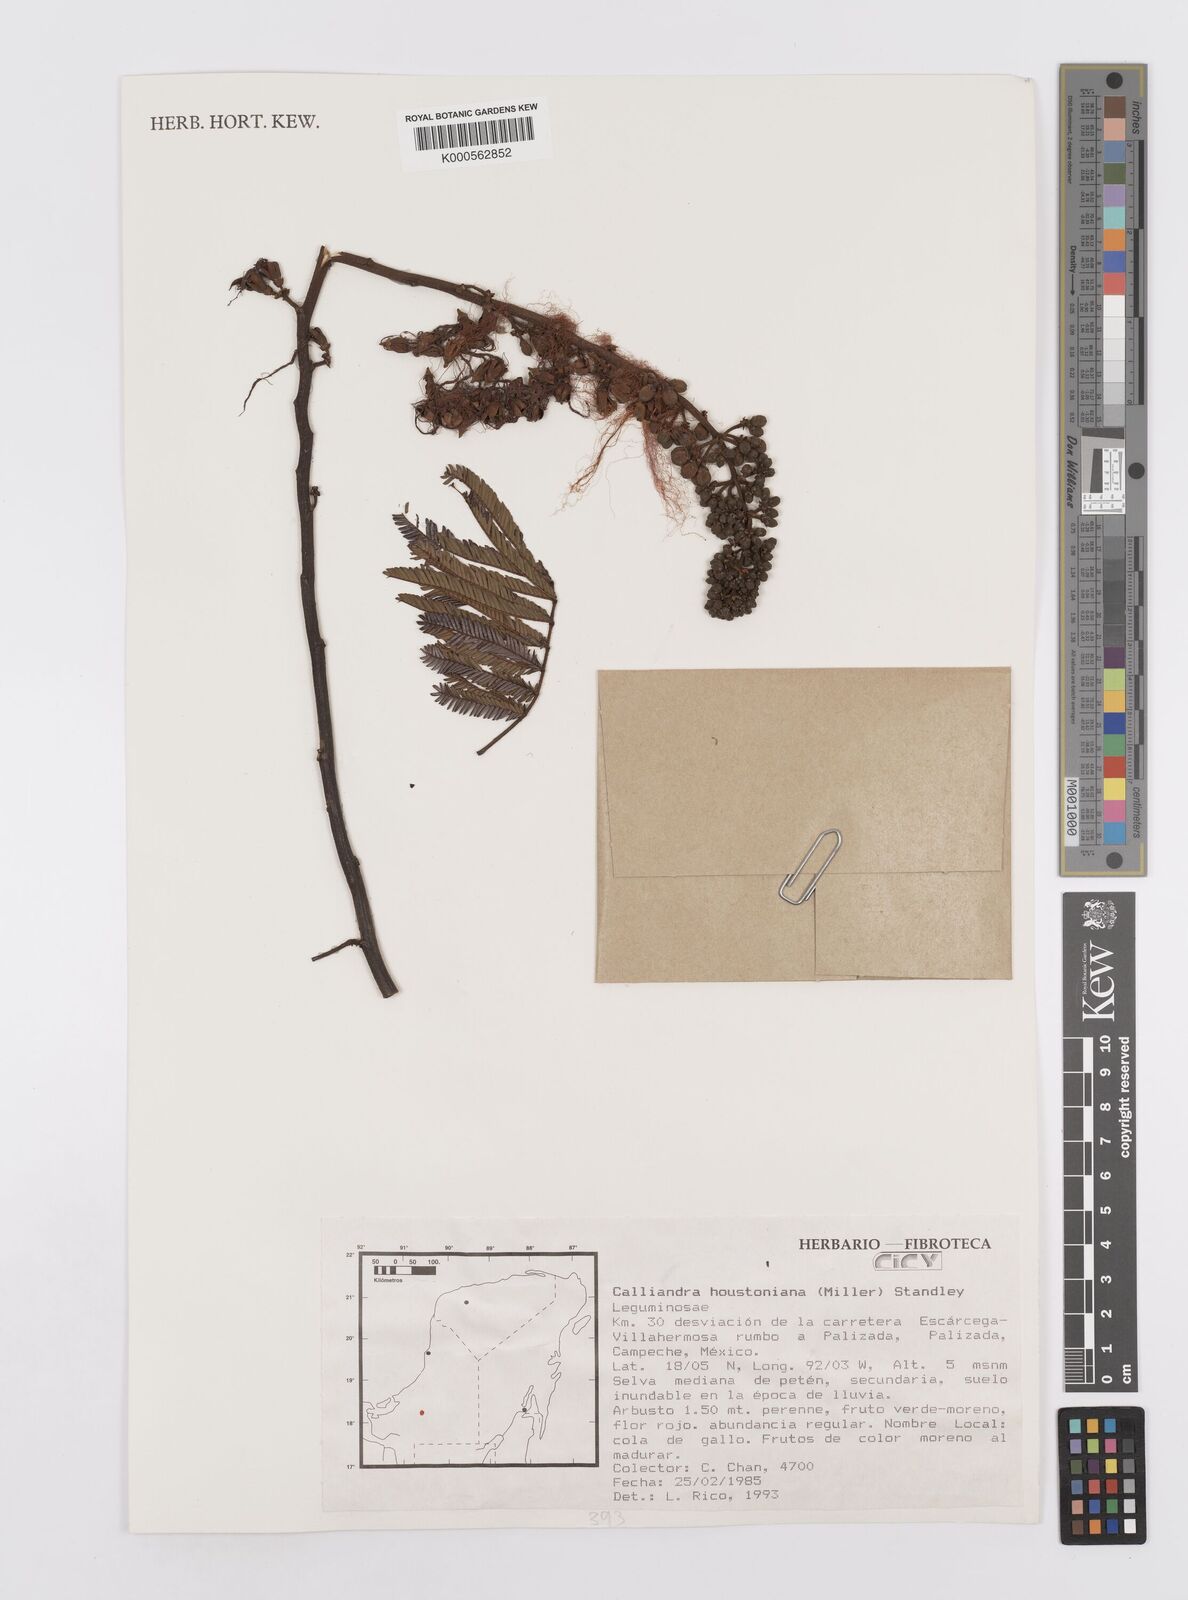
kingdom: Plantae
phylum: Tracheophyta
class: Magnoliopsida
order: Fabales
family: Fabaceae
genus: Calliandra
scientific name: Calliandra houstoniana
